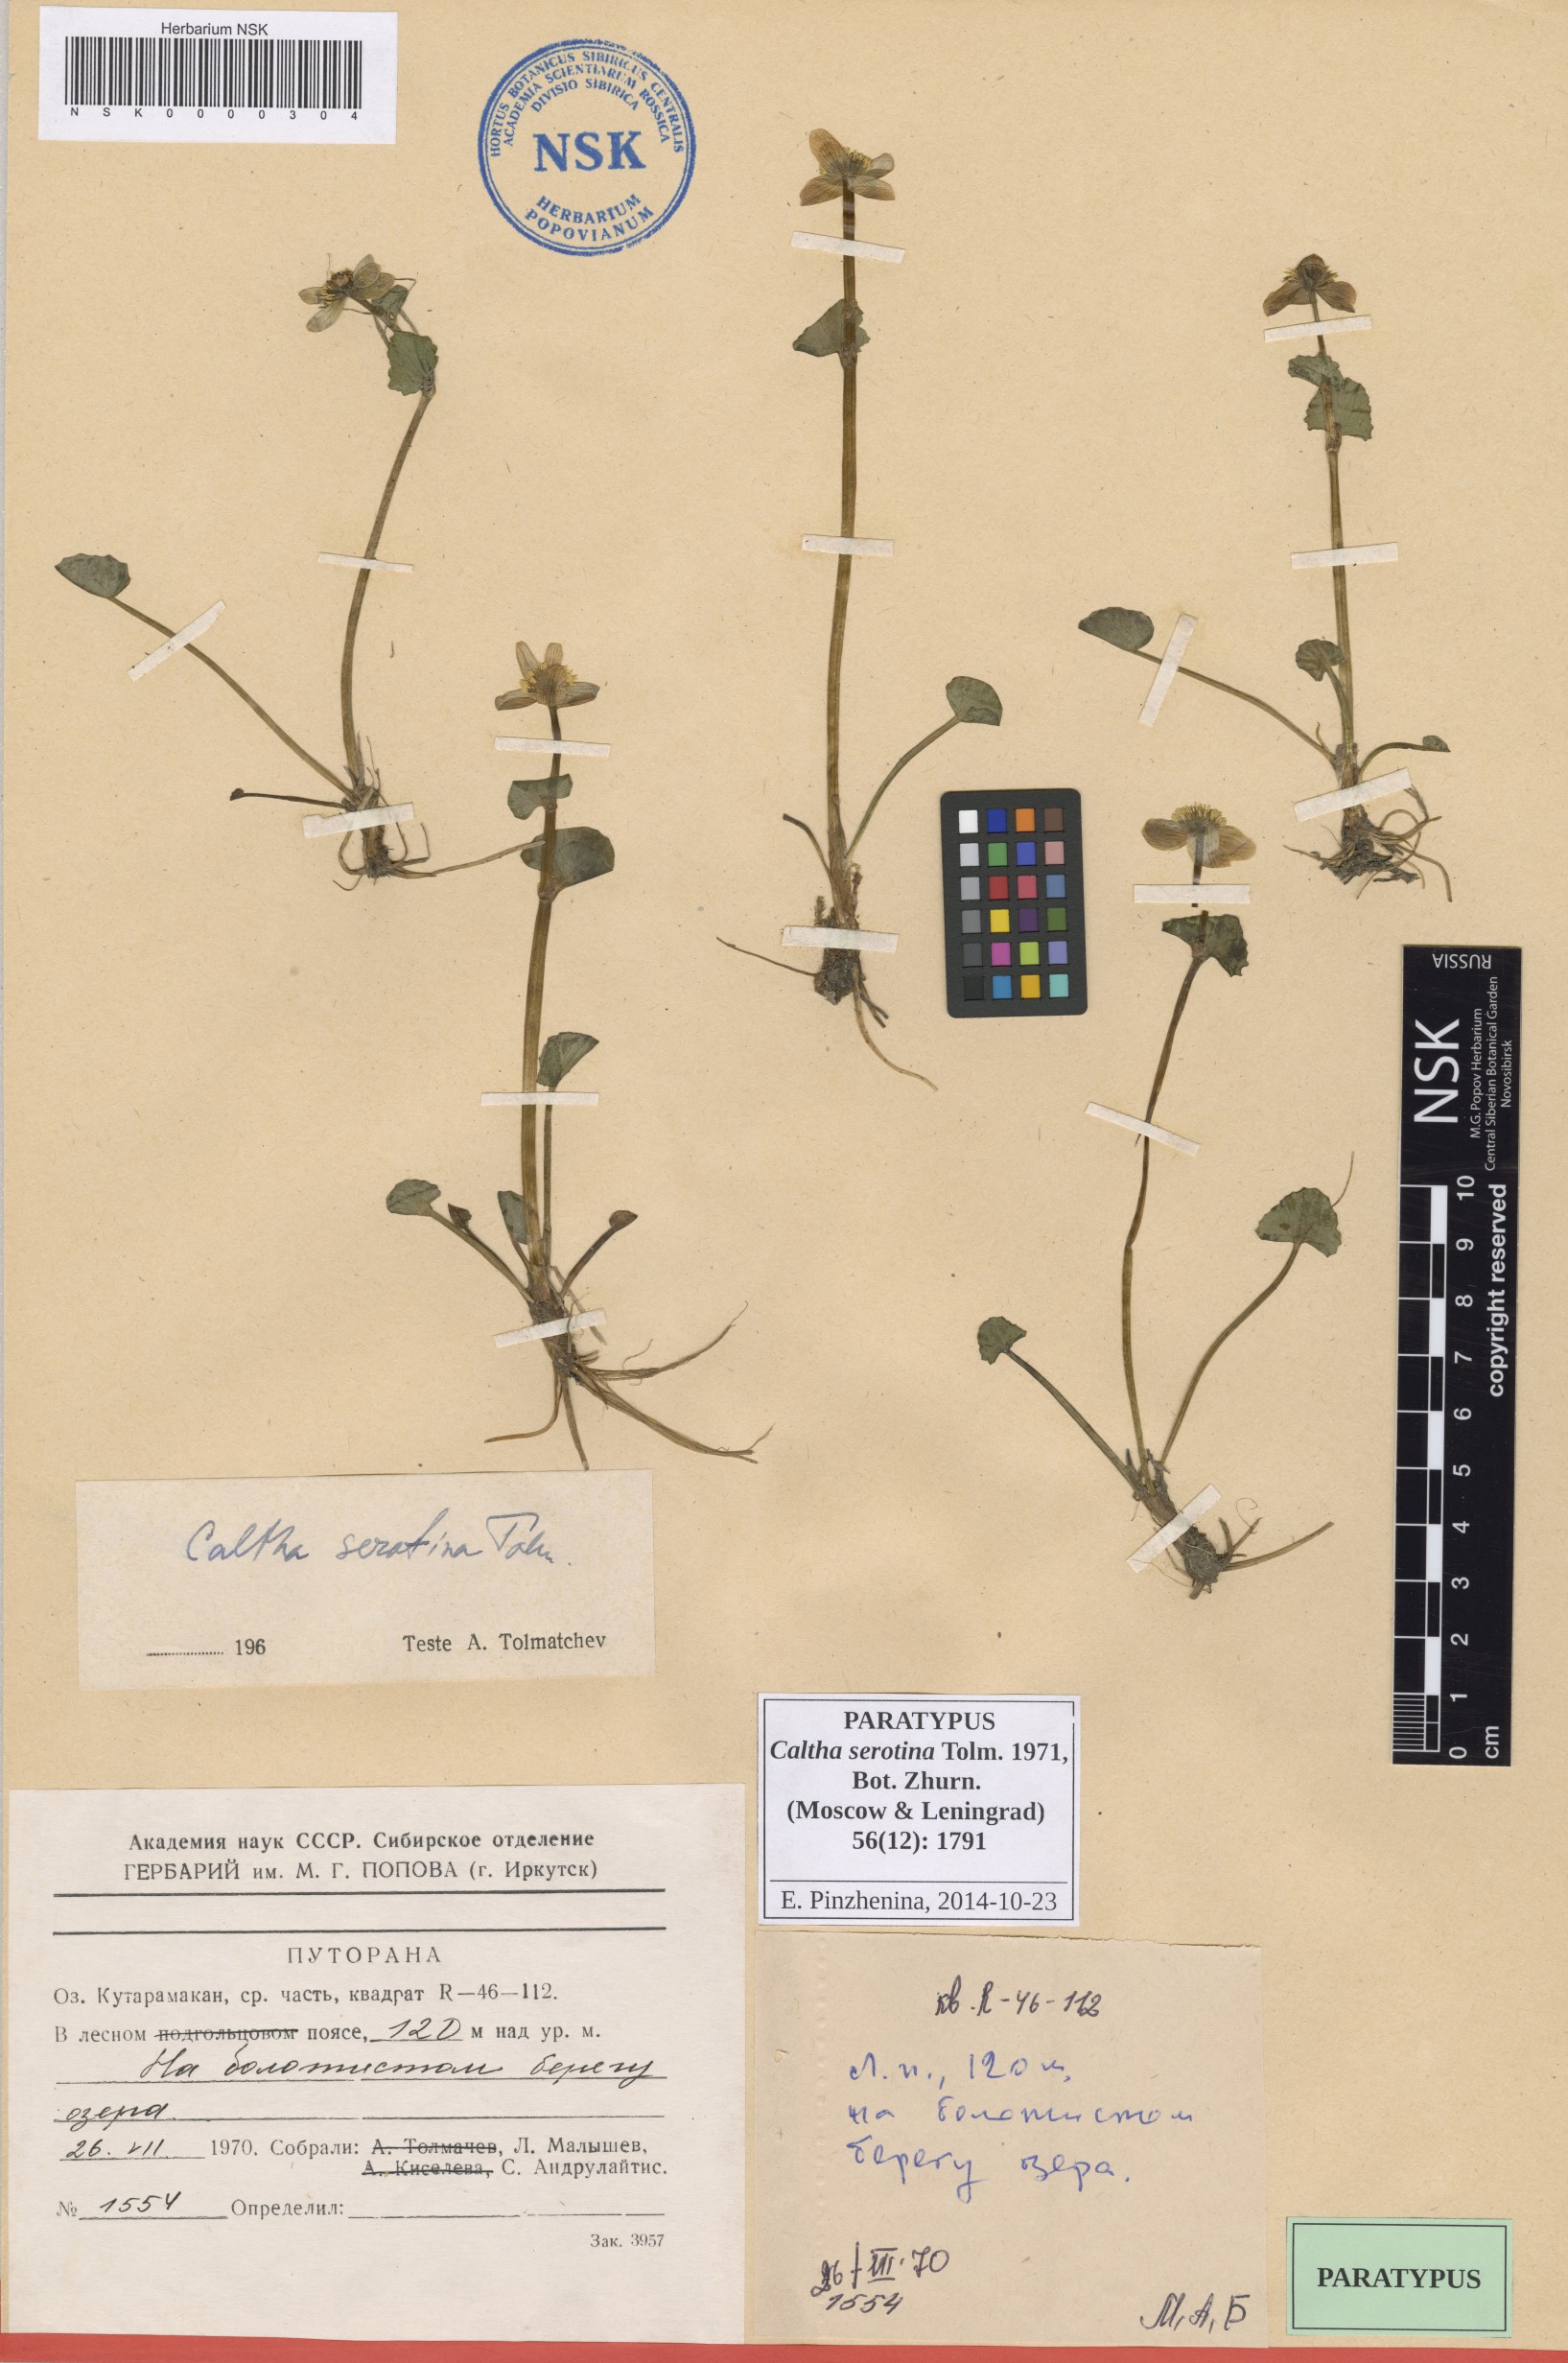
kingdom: Plantae
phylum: Tracheophyta
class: Magnoliopsida
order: Ranunculales
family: Ranunculaceae
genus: Caltha
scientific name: Caltha palustris
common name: Marsh marigold
